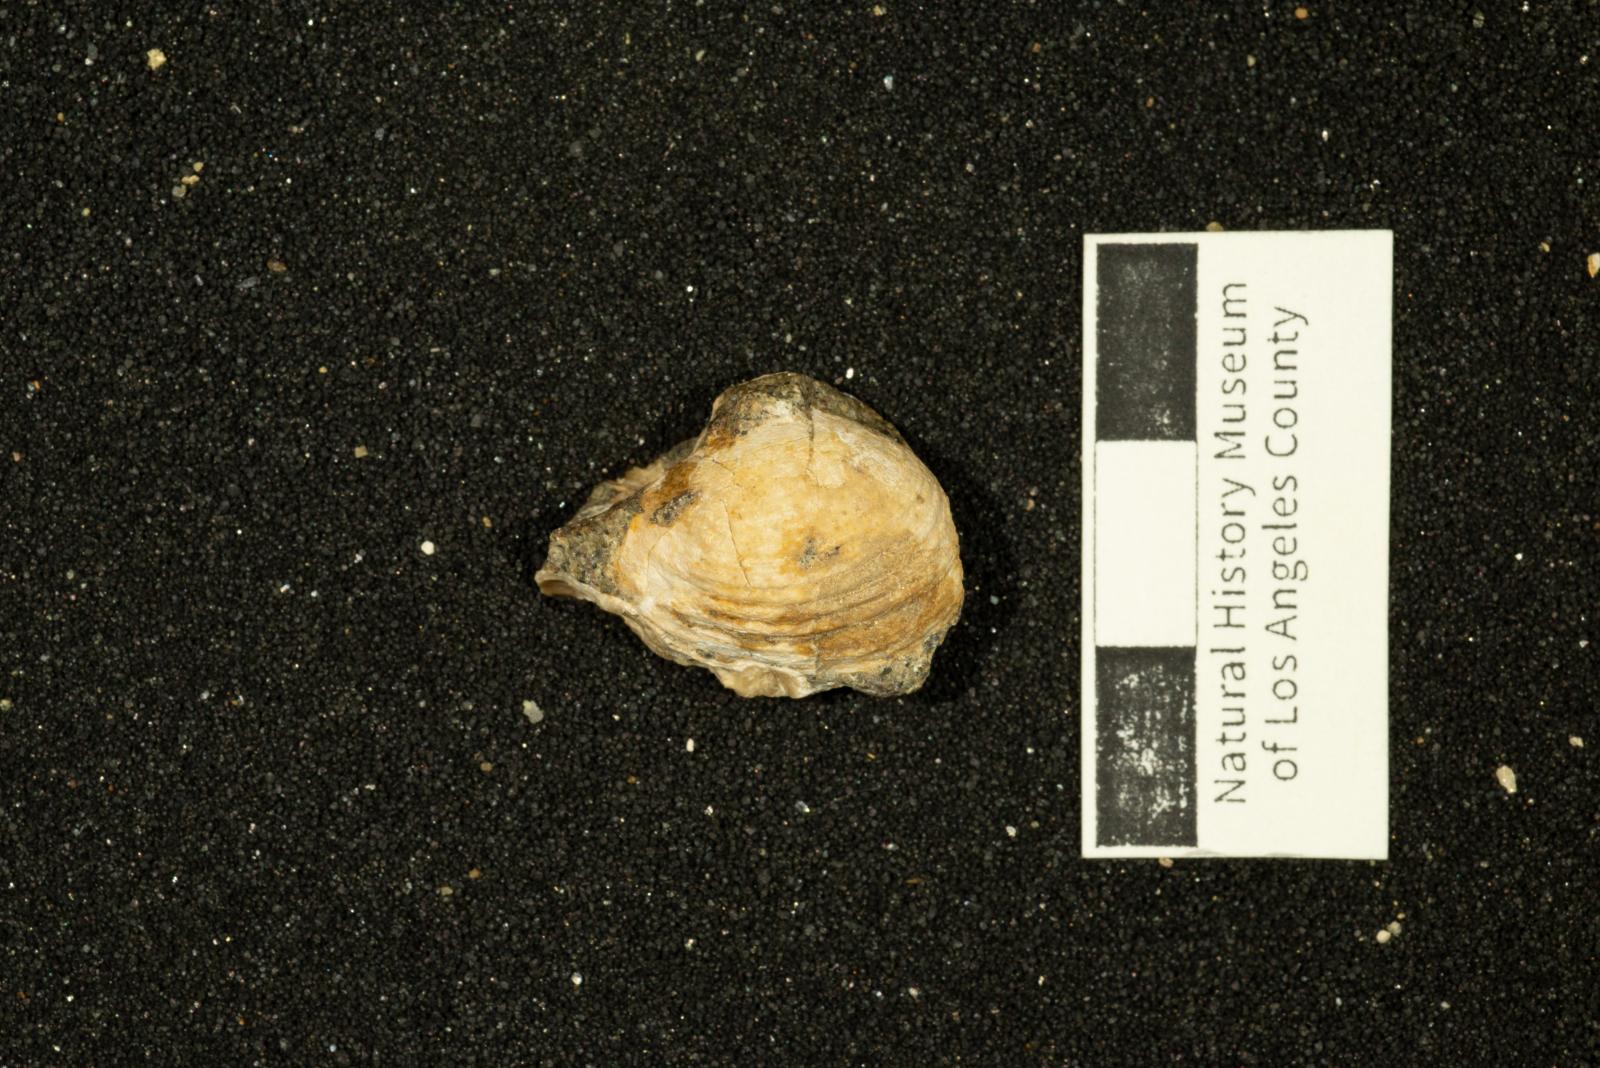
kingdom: Animalia
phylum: Mollusca
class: Bivalvia
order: Myida
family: Corbulidae
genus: Excorbula
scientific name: Excorbula parkyi
